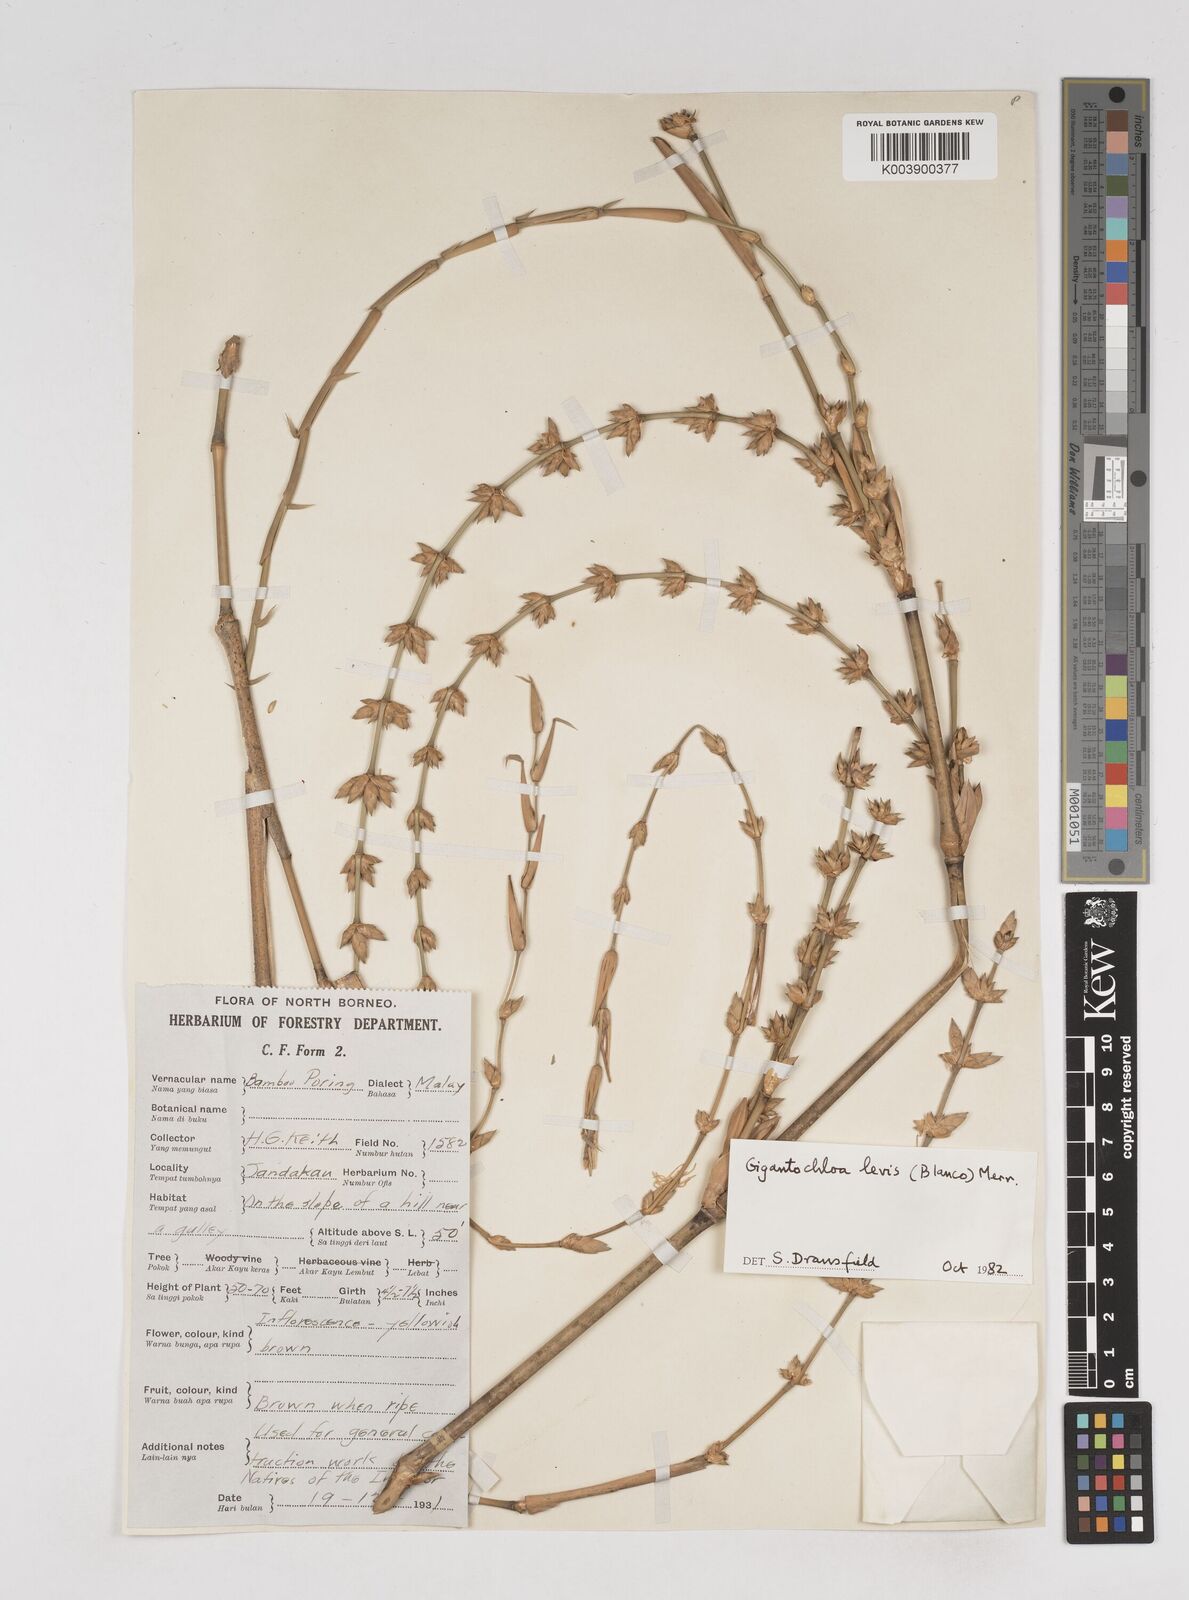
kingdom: Plantae
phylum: Tracheophyta
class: Liliopsida
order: Poales
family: Poaceae
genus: Gigantochloa
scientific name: Gigantochloa levis
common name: Smooth-shoot gigantochloa
